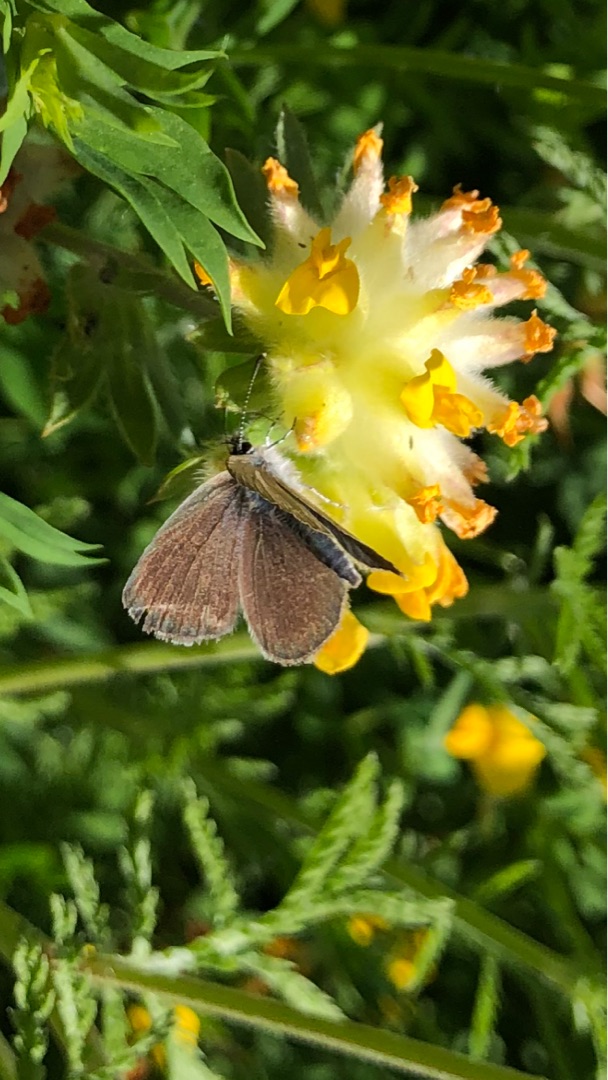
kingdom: Animalia
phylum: Arthropoda
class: Insecta
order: Lepidoptera
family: Lycaenidae
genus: Cupido
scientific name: Cupido minimus
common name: Dværgblåfugl
